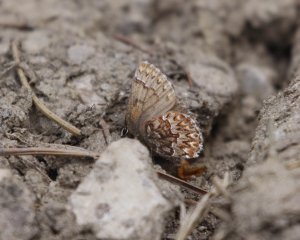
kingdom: Animalia
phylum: Arthropoda
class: Insecta
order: Lepidoptera
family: Lycaenidae
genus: Incisalia
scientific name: Incisalia eryphon
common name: Western Pine Elfin
